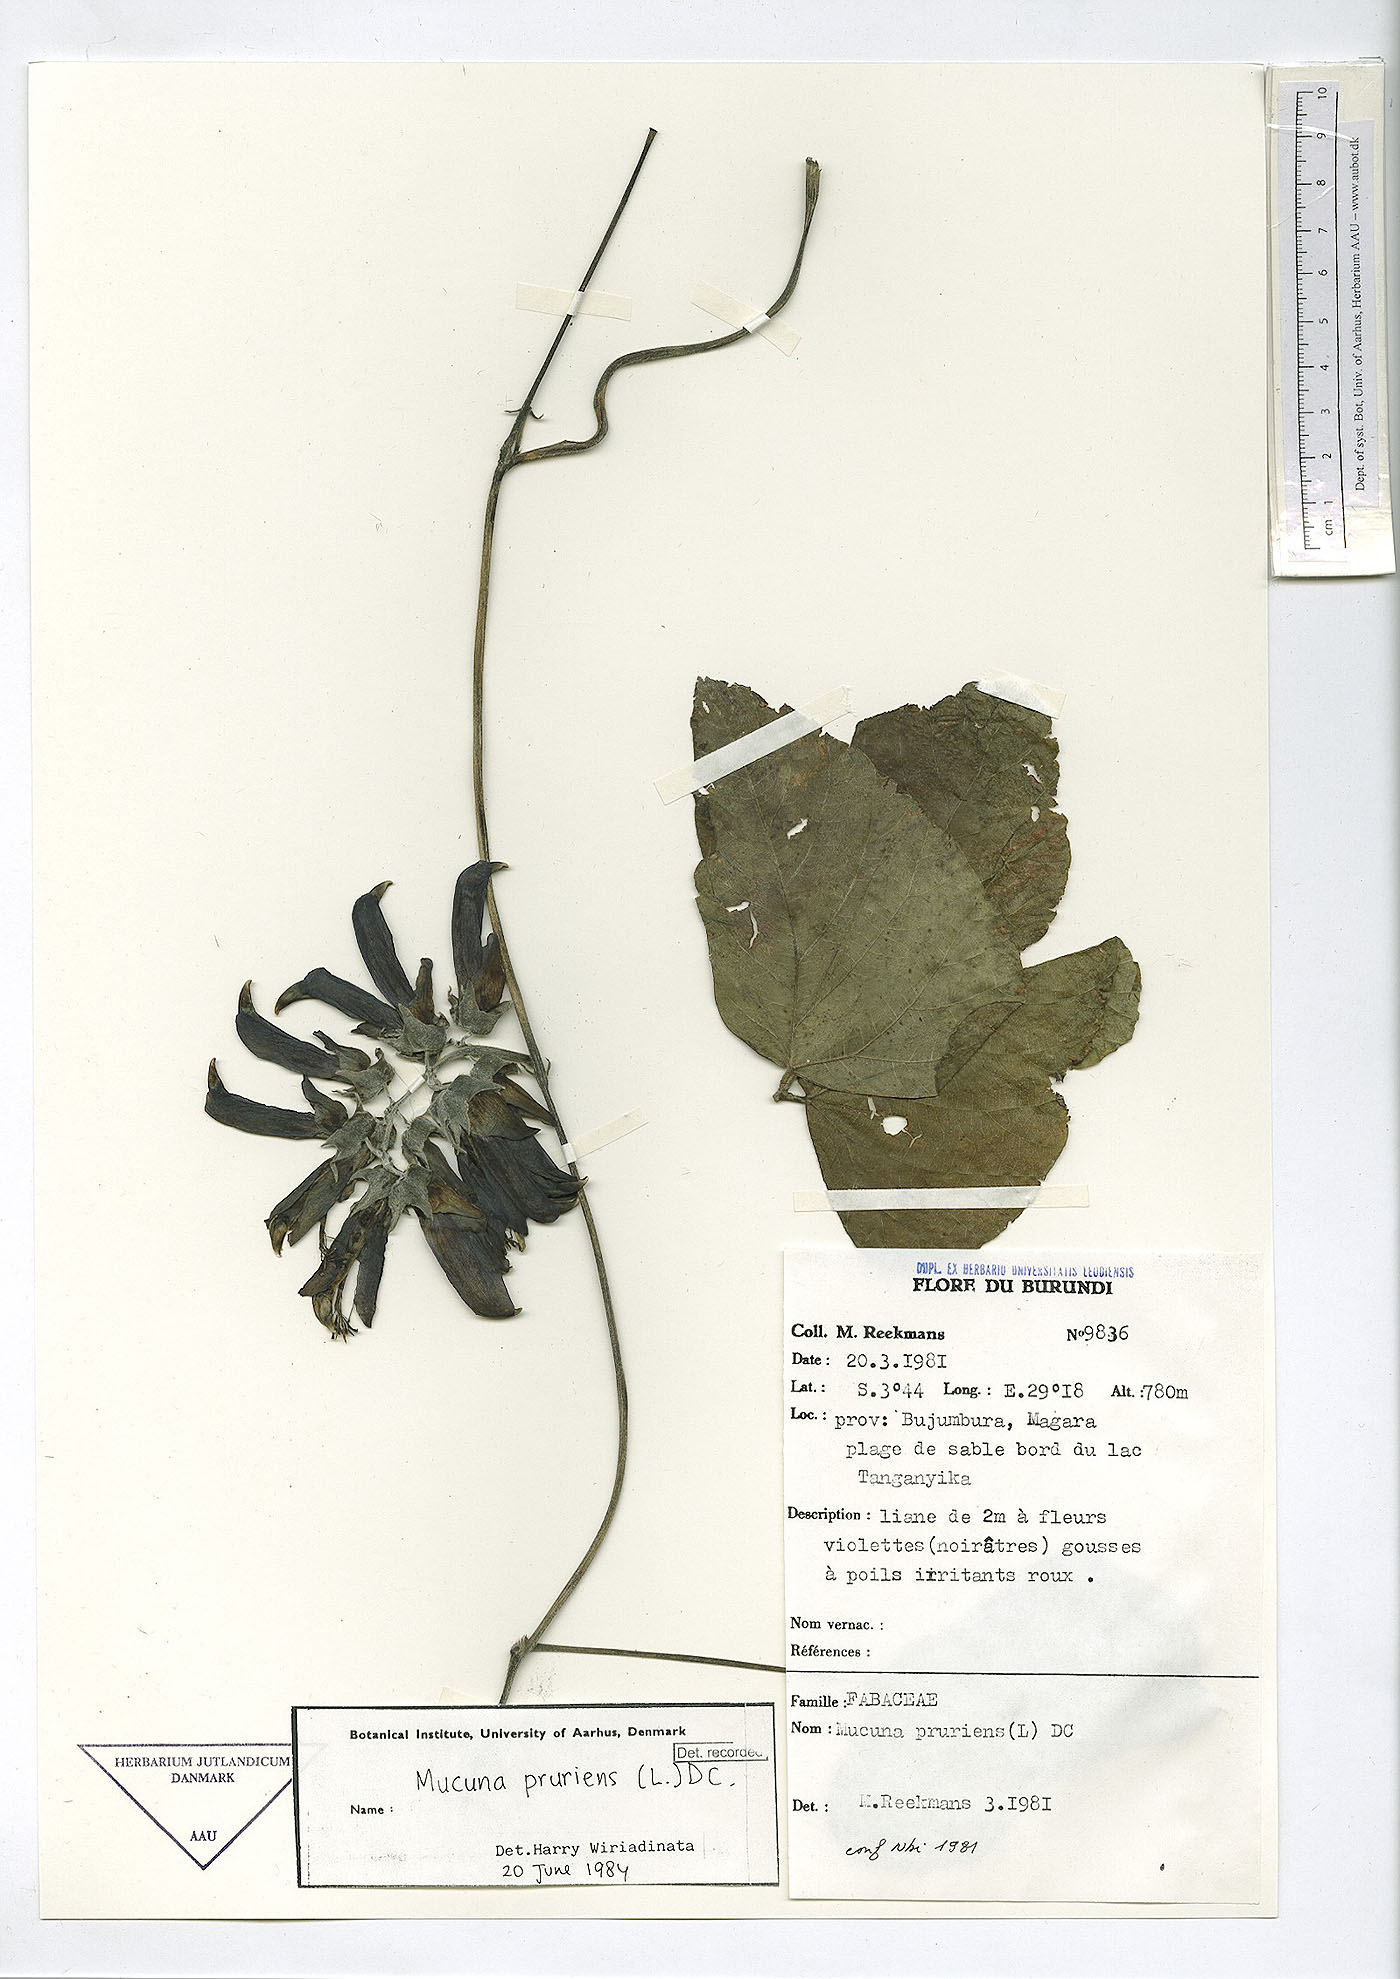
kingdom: Plantae
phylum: Tracheophyta
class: Magnoliopsida
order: Fabales
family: Fabaceae
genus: Mucuna
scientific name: Mucuna pruriens
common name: Cow-itch
